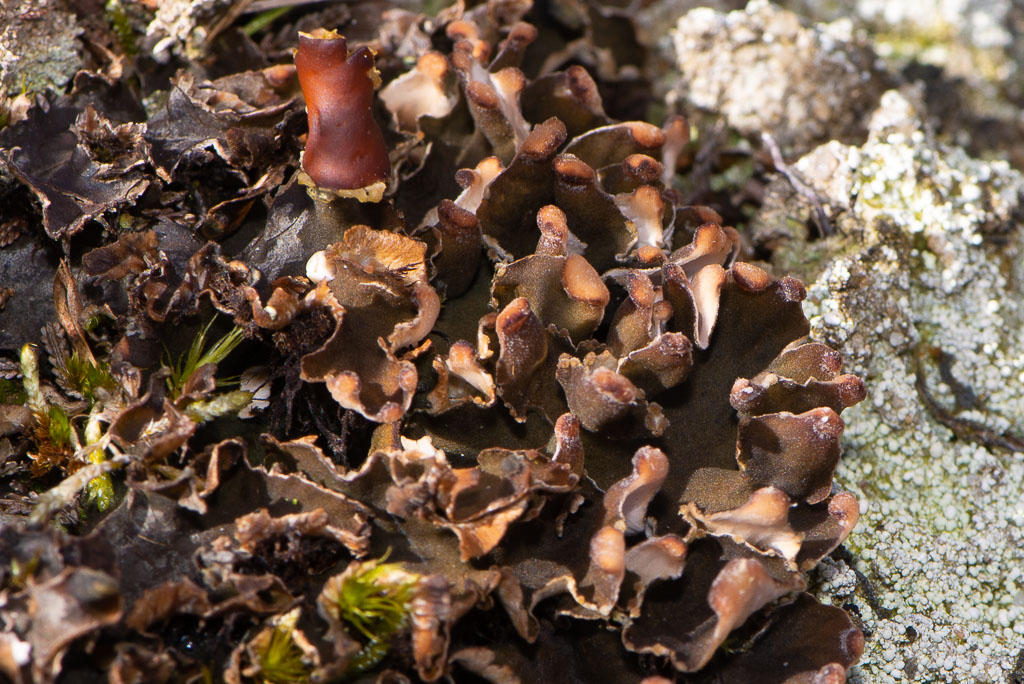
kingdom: Fungi
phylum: Ascomycota
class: Lecanoromycetes
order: Peltigerales
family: Peltigeraceae
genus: Peltigera
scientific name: Peltigera didactyla
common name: liden skjoldlav
